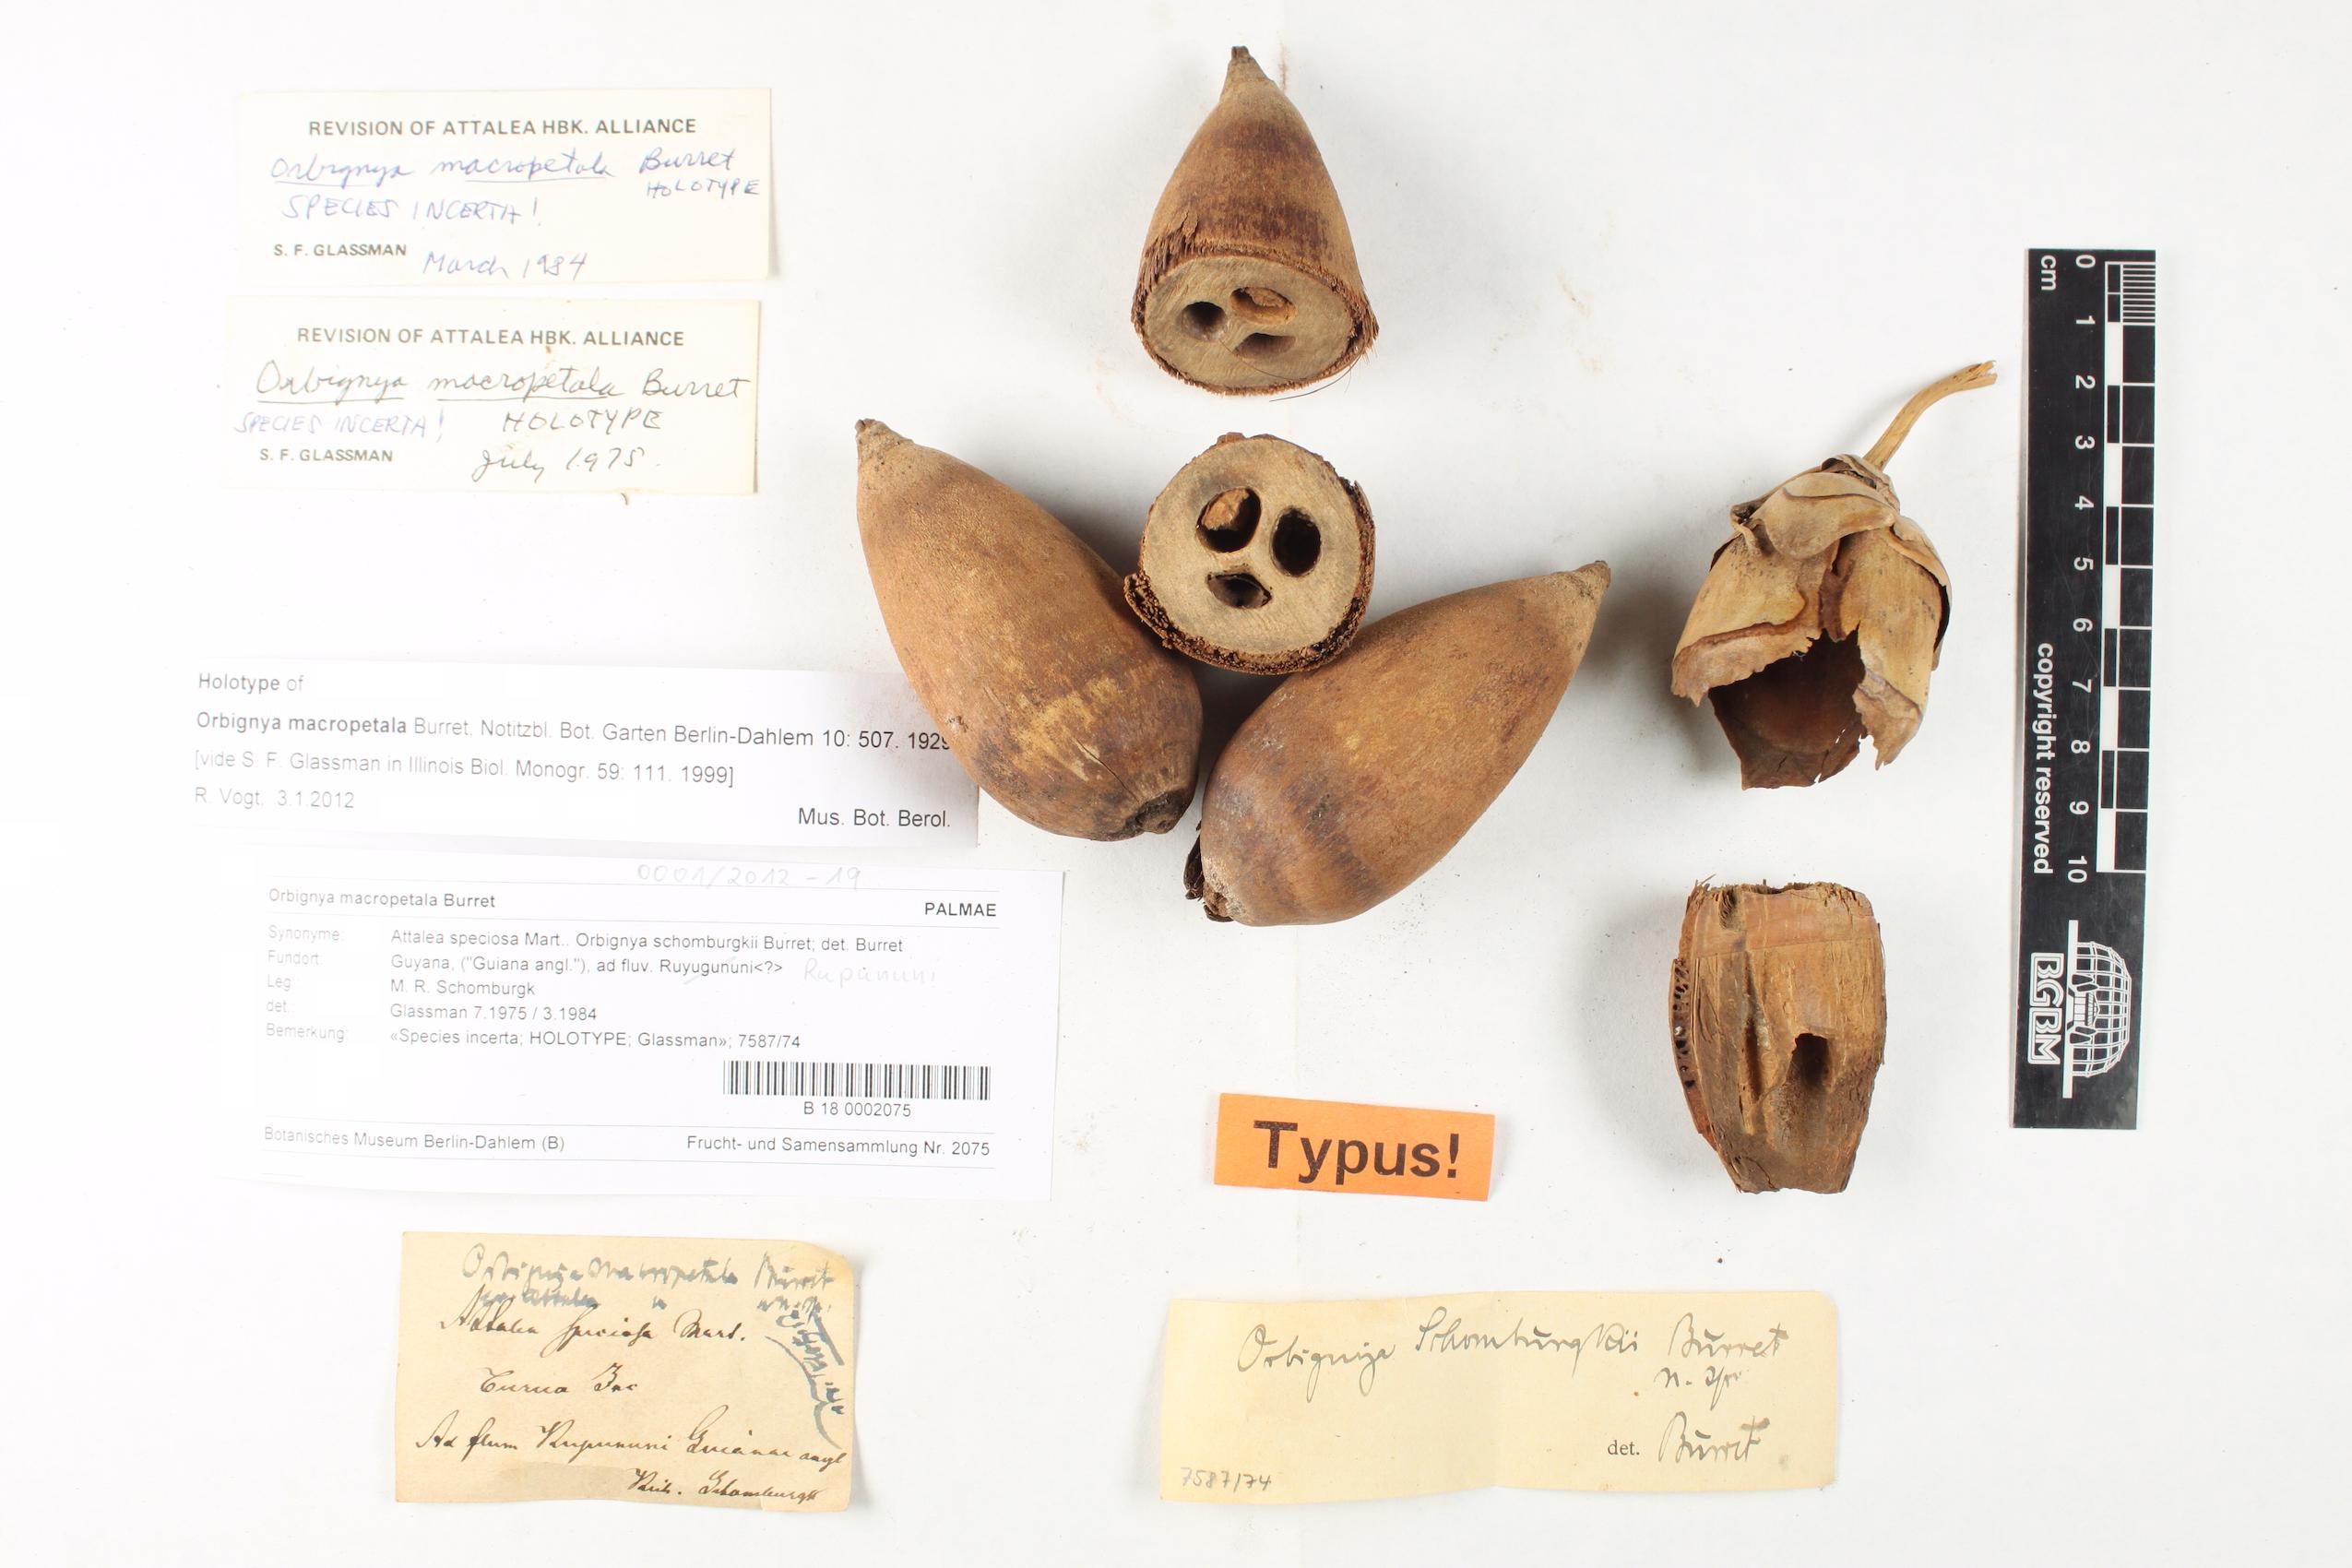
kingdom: Plantae
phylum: Tracheophyta
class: Liliopsida
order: Arecales
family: Arecaceae
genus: Attalea
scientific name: Attalea speciosa
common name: Babassu palm
